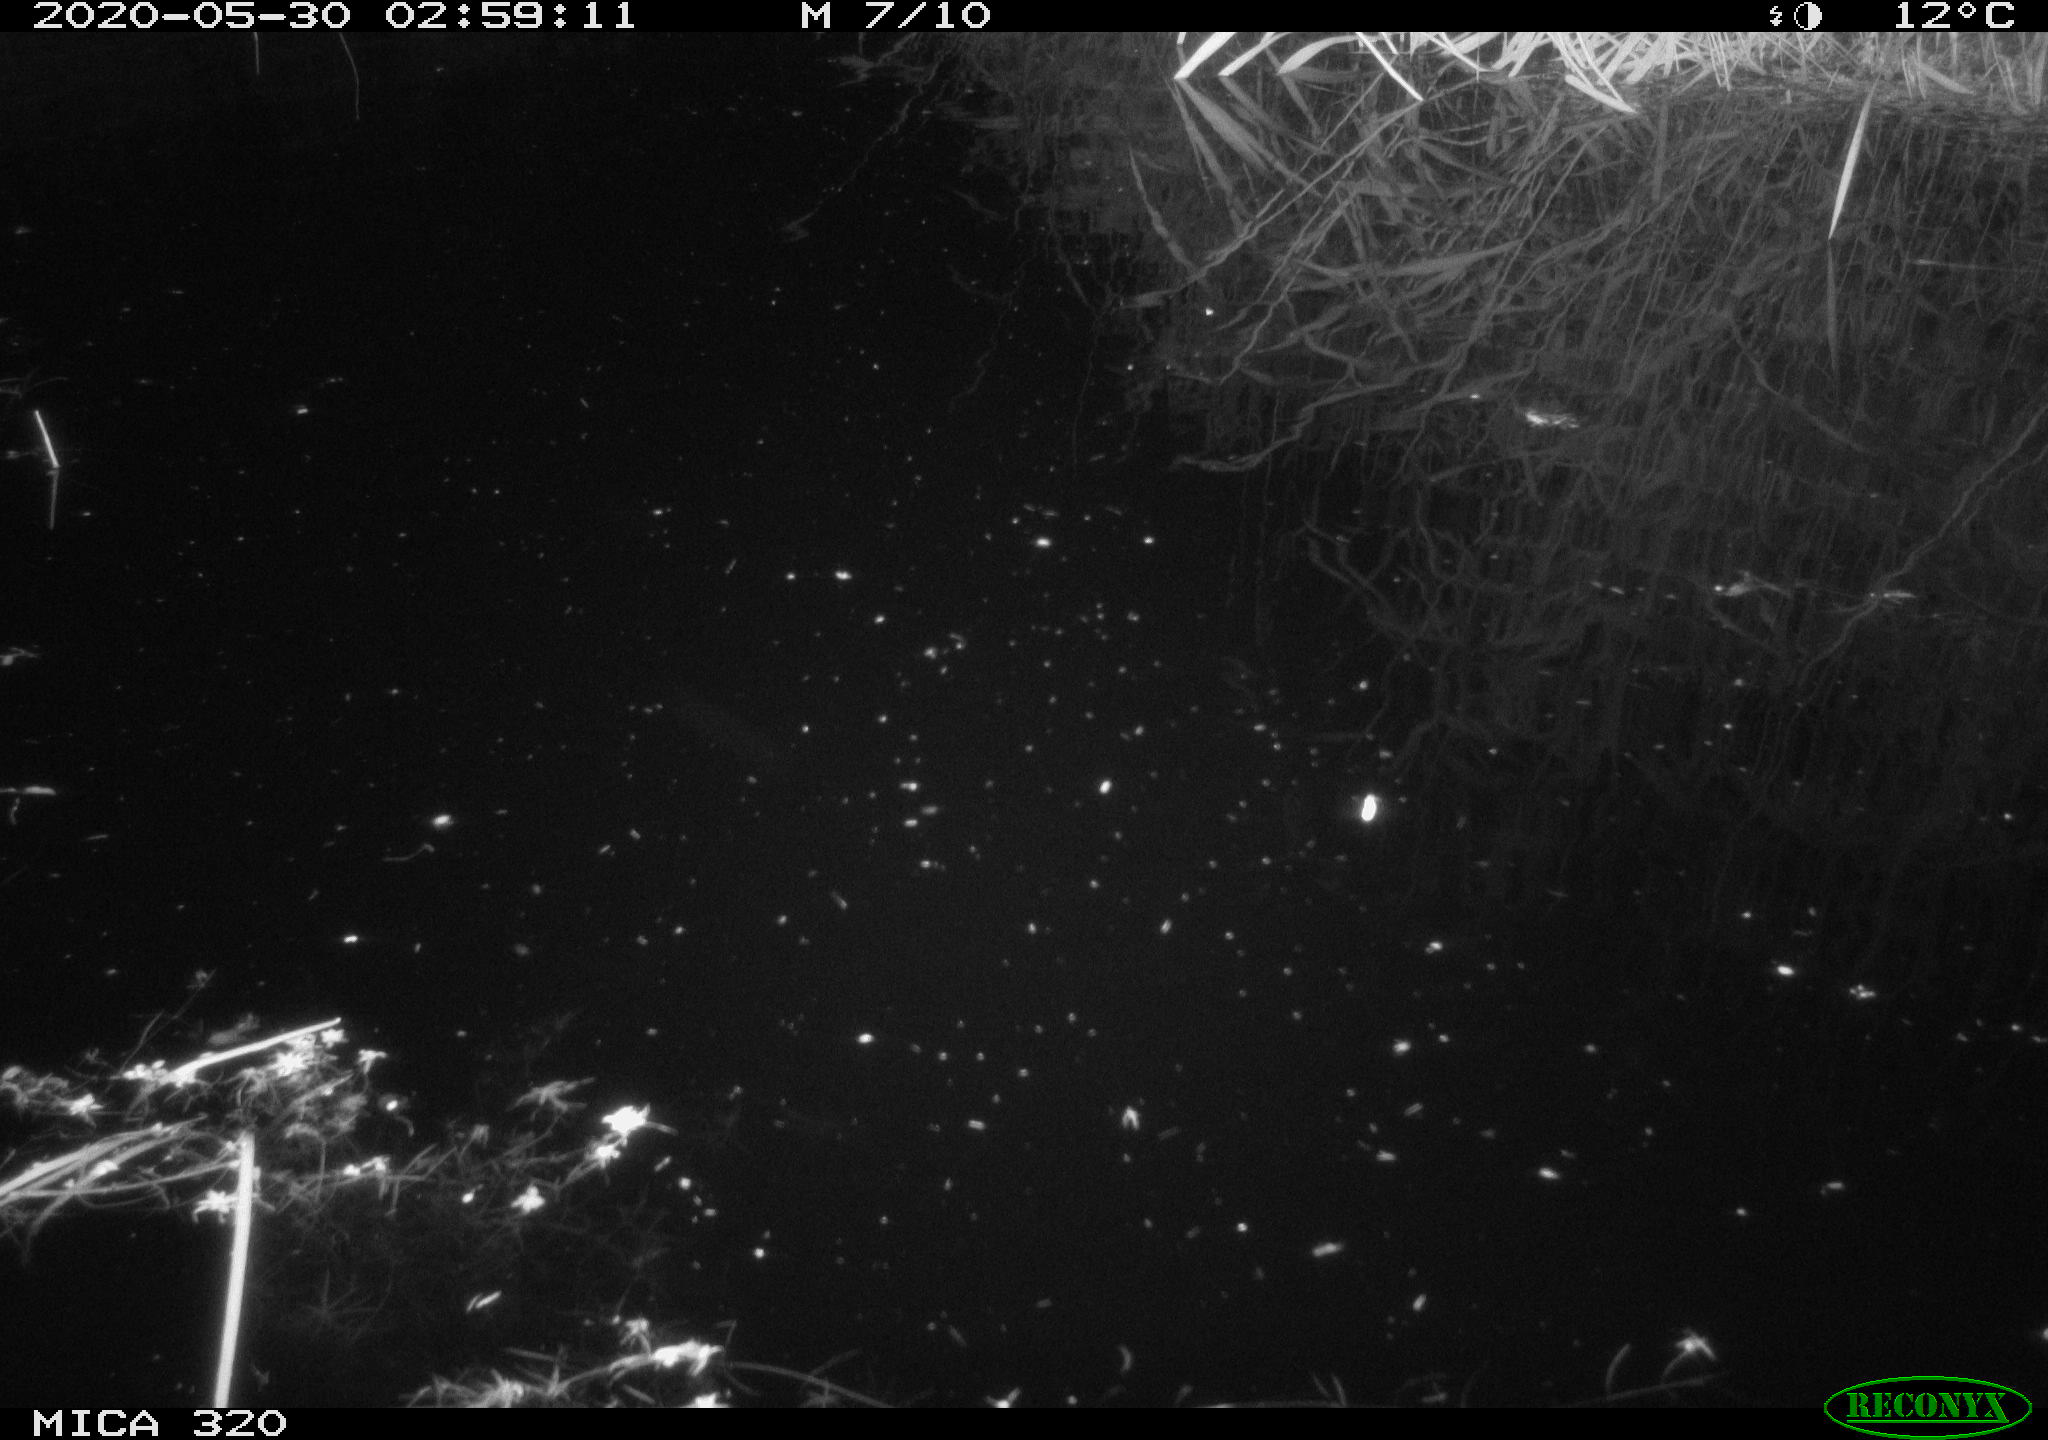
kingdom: Animalia
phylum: Chordata
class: Mammalia
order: Rodentia
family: Muridae
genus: Rattus
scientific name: Rattus norvegicus
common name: Brown rat
